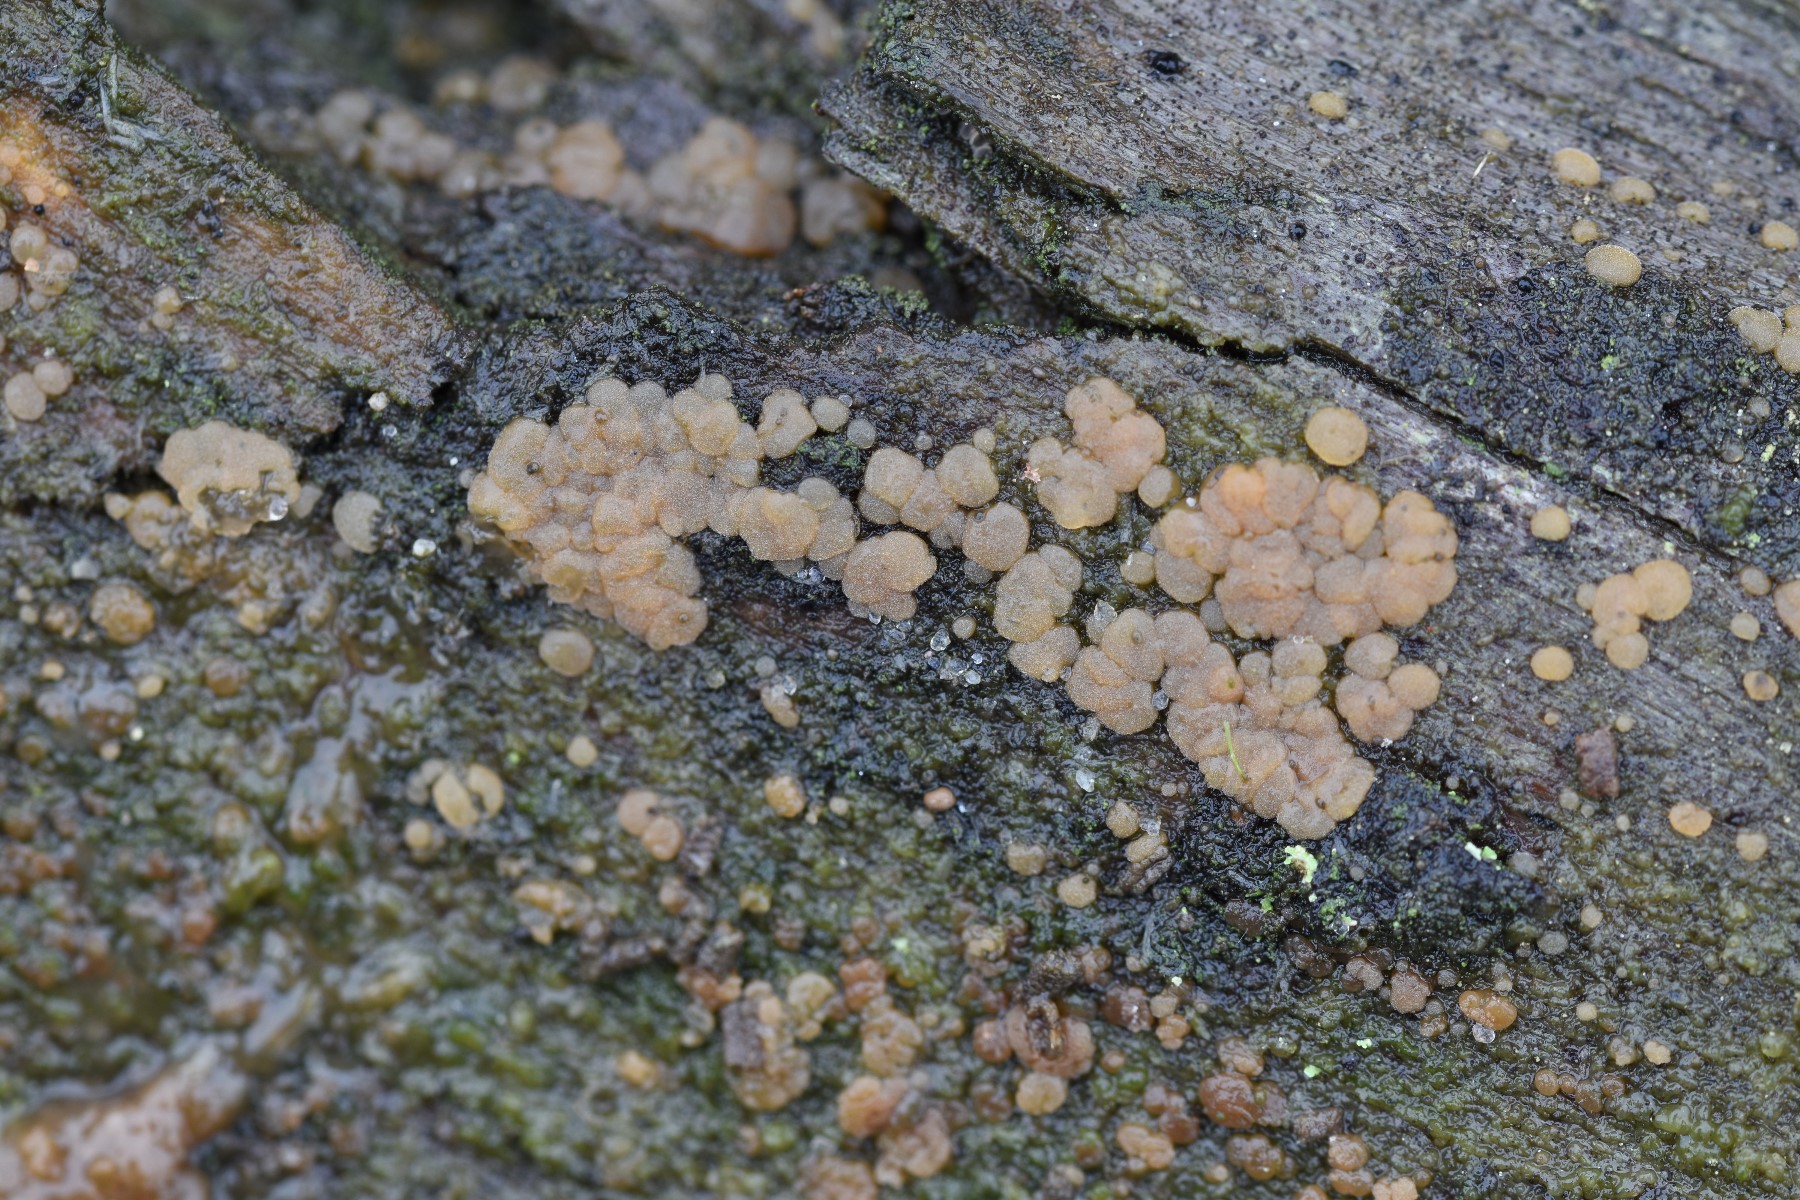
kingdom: Fungi
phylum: Basidiomycota
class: Dacrymycetes
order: Dacrymycetales
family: Cerinomycetaceae
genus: Cerinomyces
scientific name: Cerinomyces lipoferus
